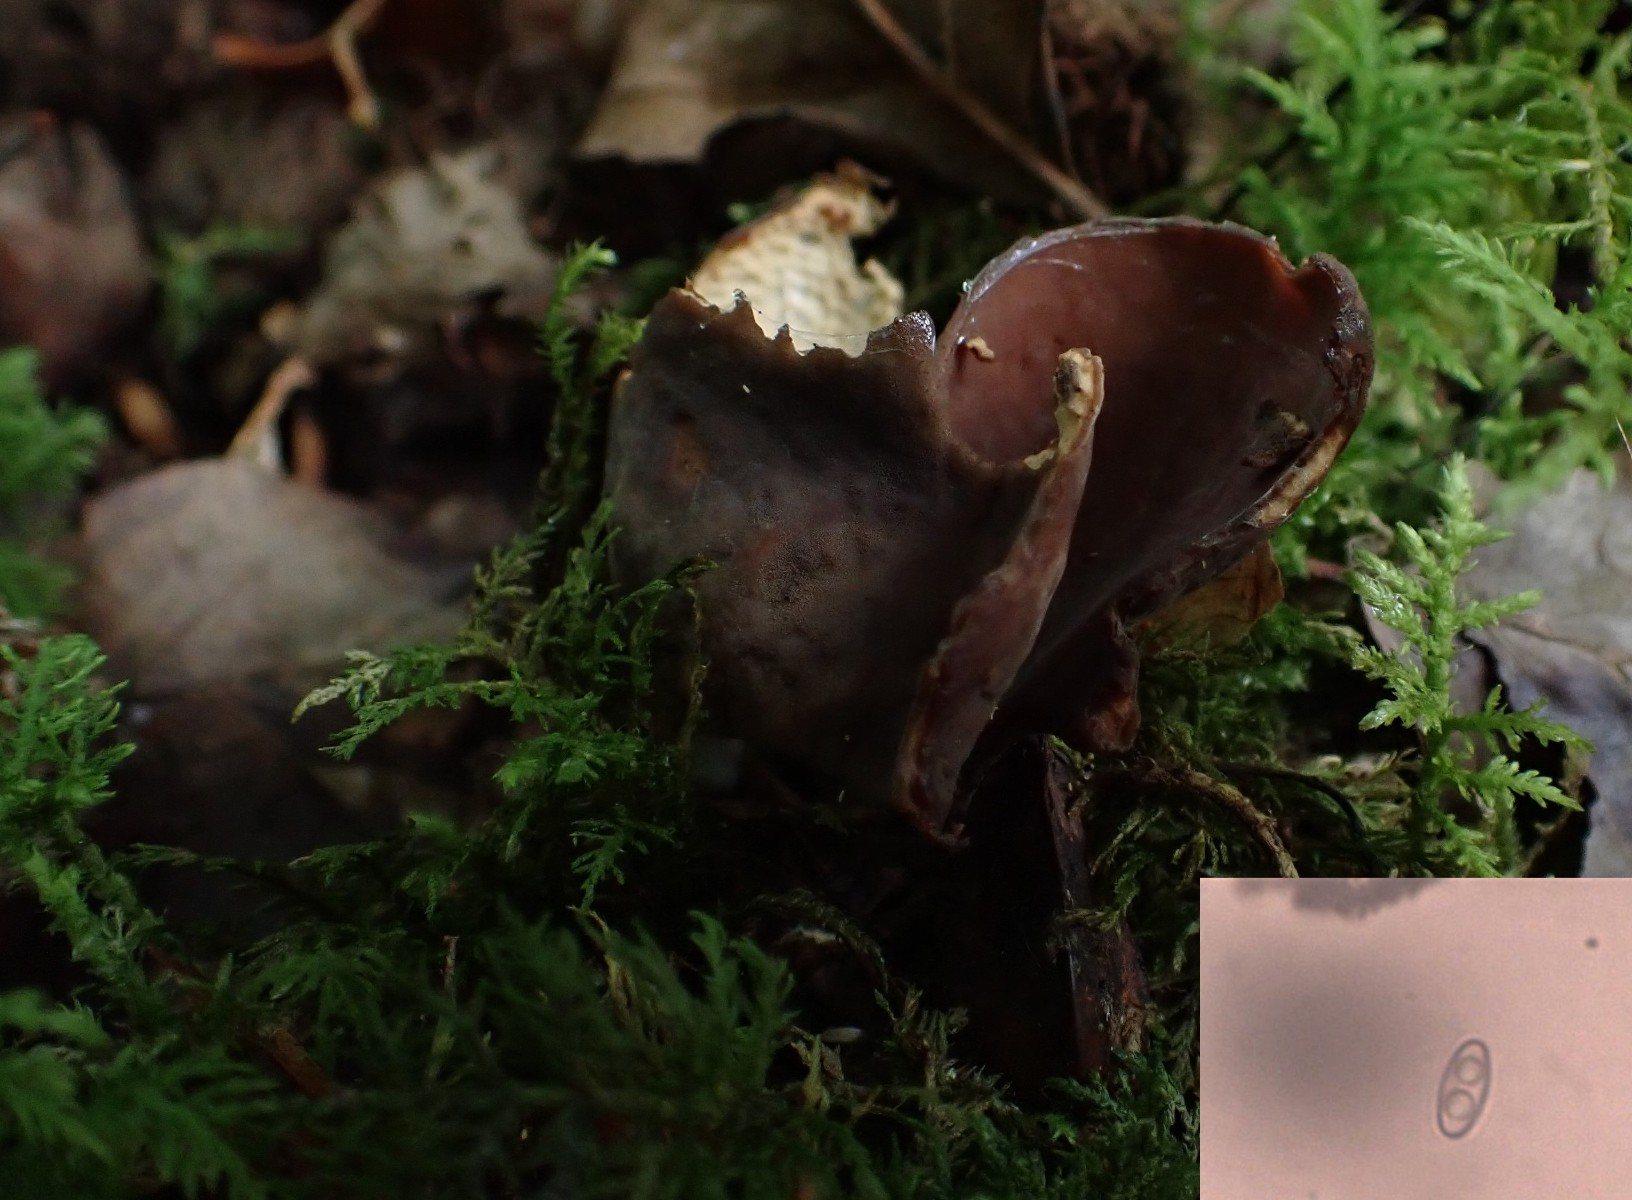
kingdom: Fungi
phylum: Ascomycota
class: Pezizomycetes
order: Pezizales
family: Otideaceae
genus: Otidea
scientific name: Otidea bufonia
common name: brun ørebæger
